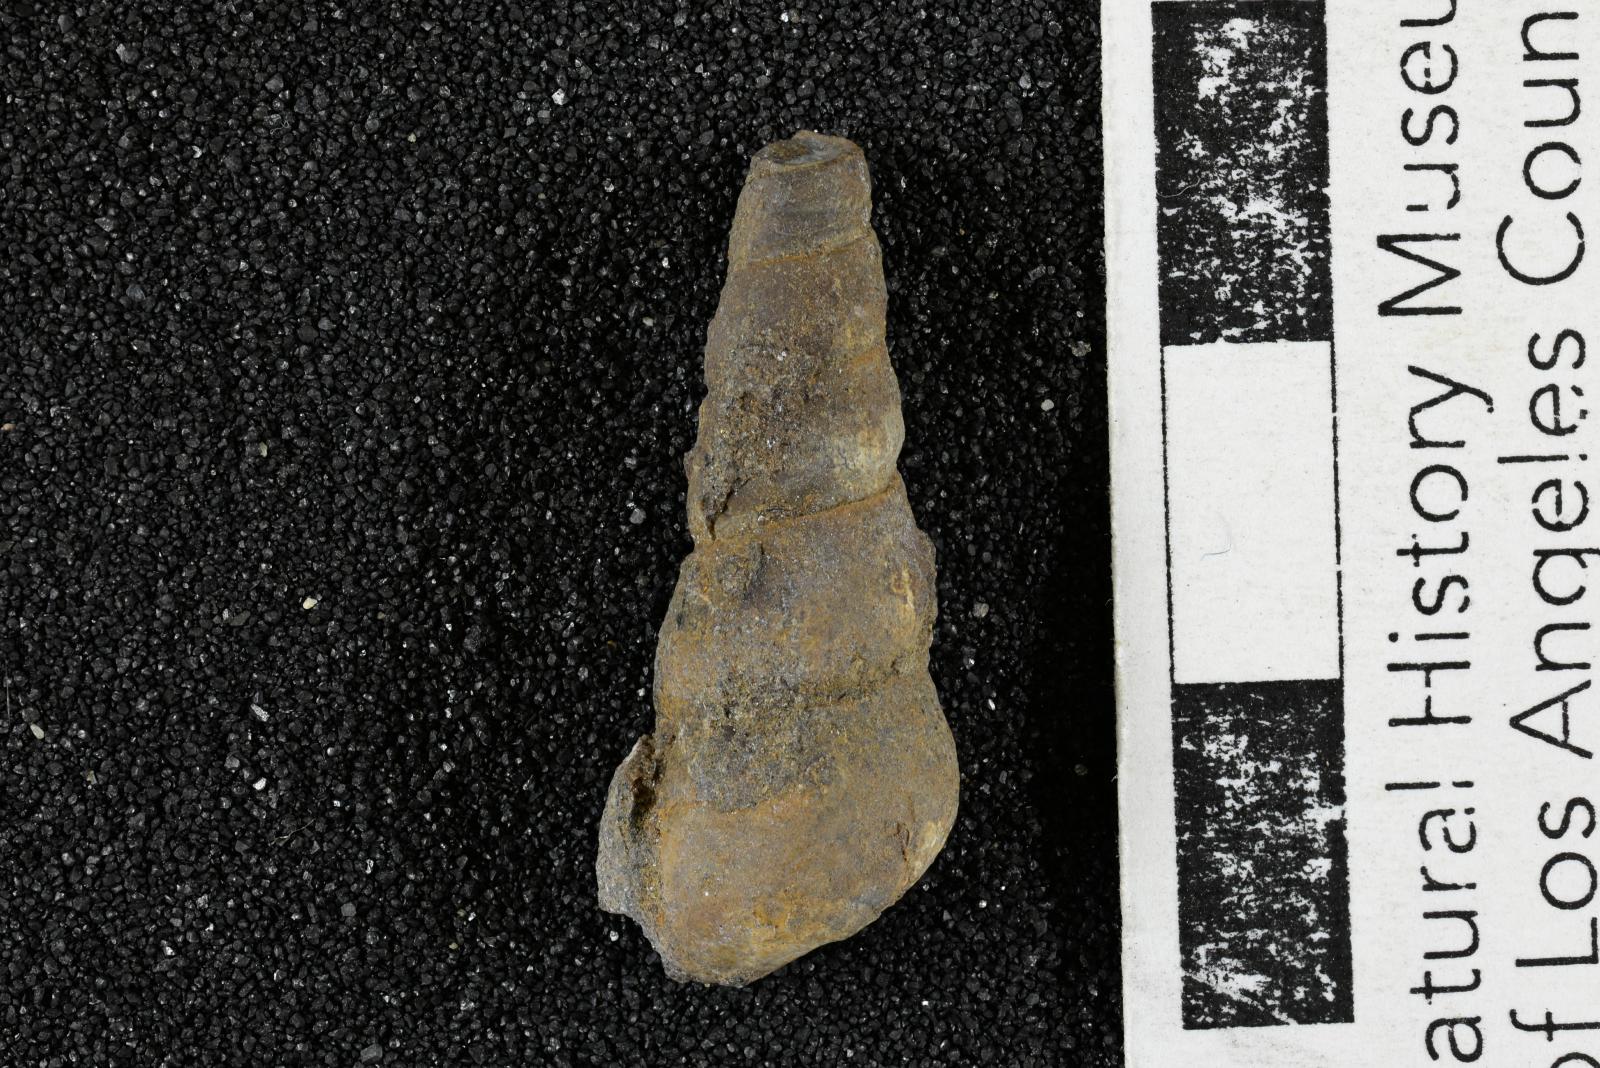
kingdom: Animalia
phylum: Mollusca
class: Gastropoda
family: Turritellidae
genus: Turritella
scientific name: Turritella ossa
